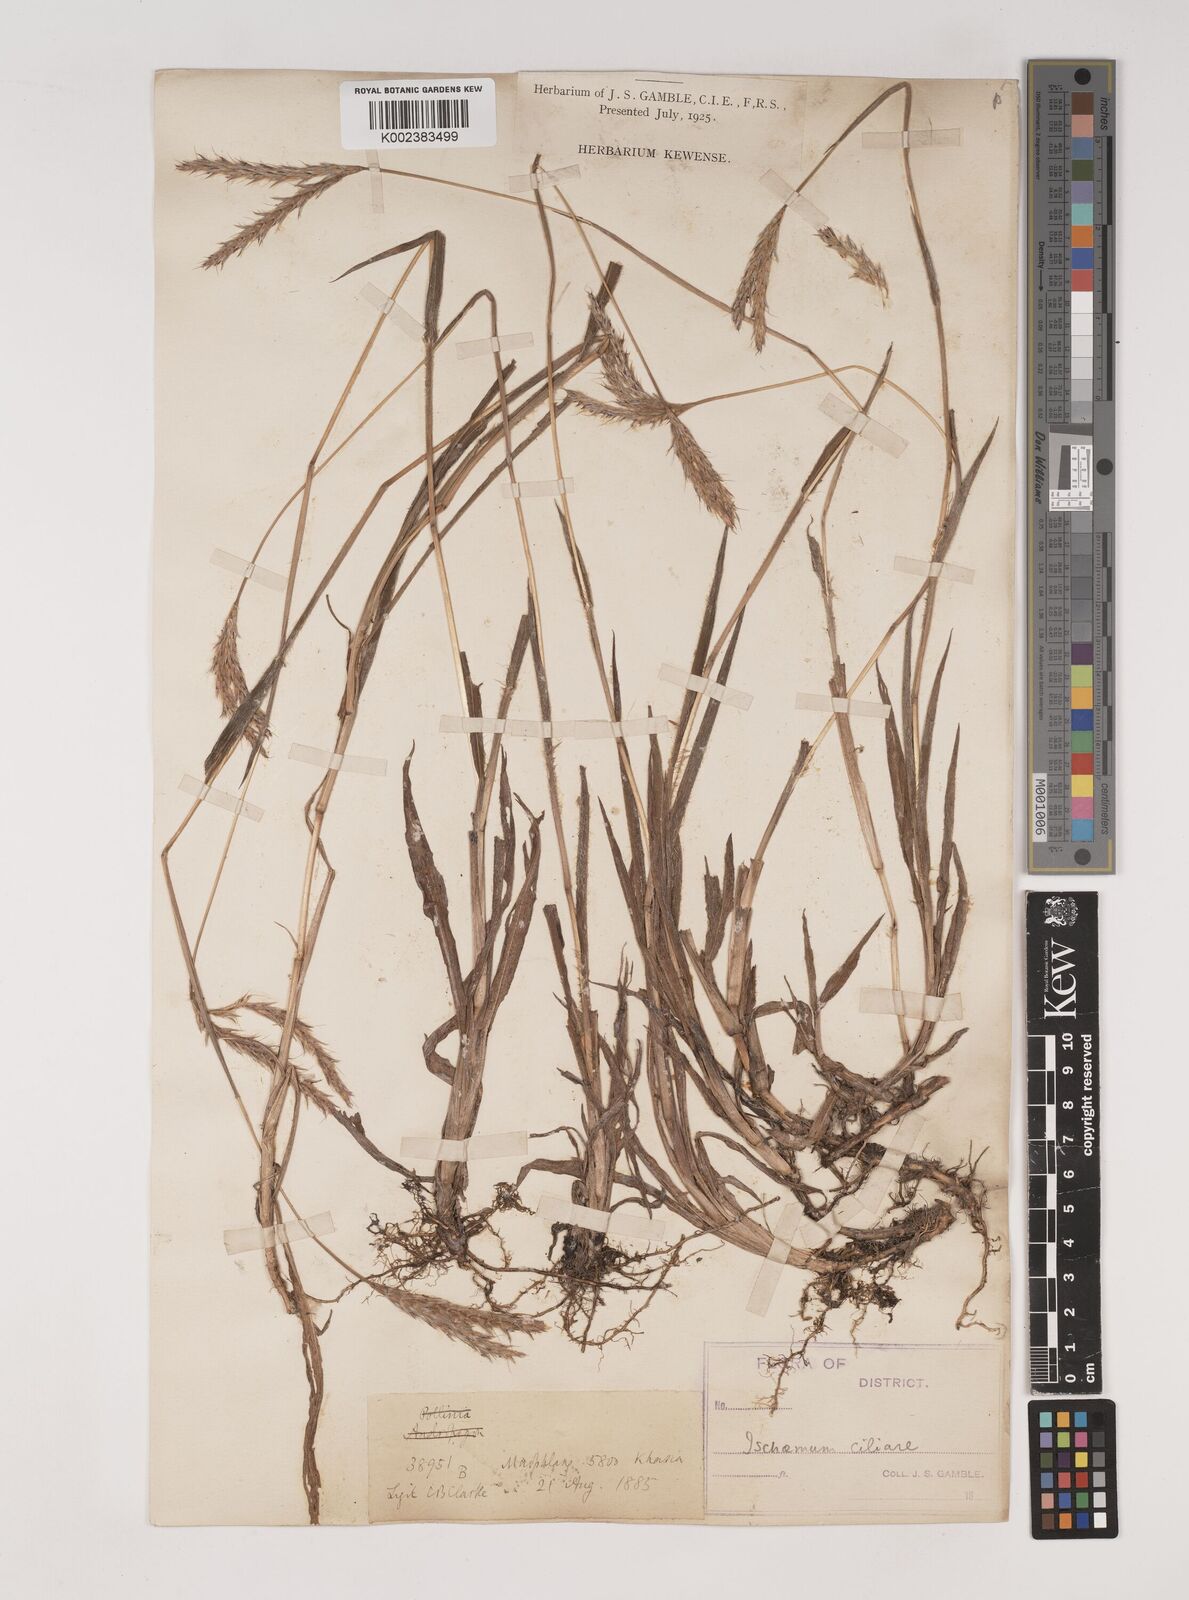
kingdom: Plantae
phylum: Tracheophyta
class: Liliopsida
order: Poales
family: Poaceae
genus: Ischaemum
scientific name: Ischaemum
